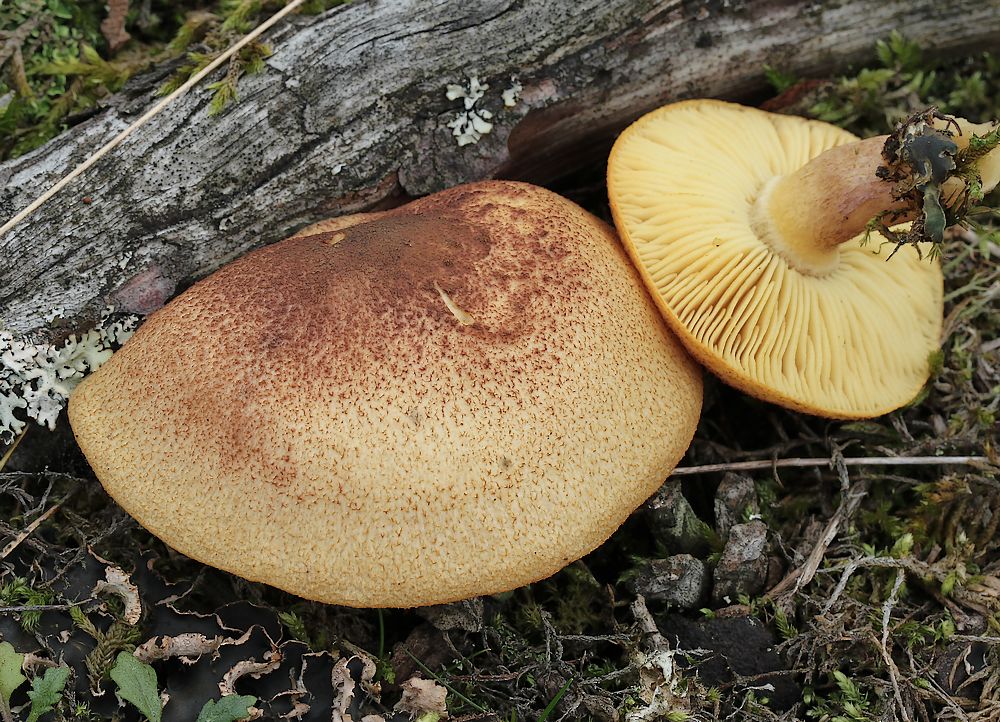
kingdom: Fungi
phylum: Basidiomycota
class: Agaricomycetes
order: Agaricales
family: Tricholomataceae
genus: Tricholomopsis
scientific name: Tricholomopsis rutilans
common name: purpur-væbnerhat
